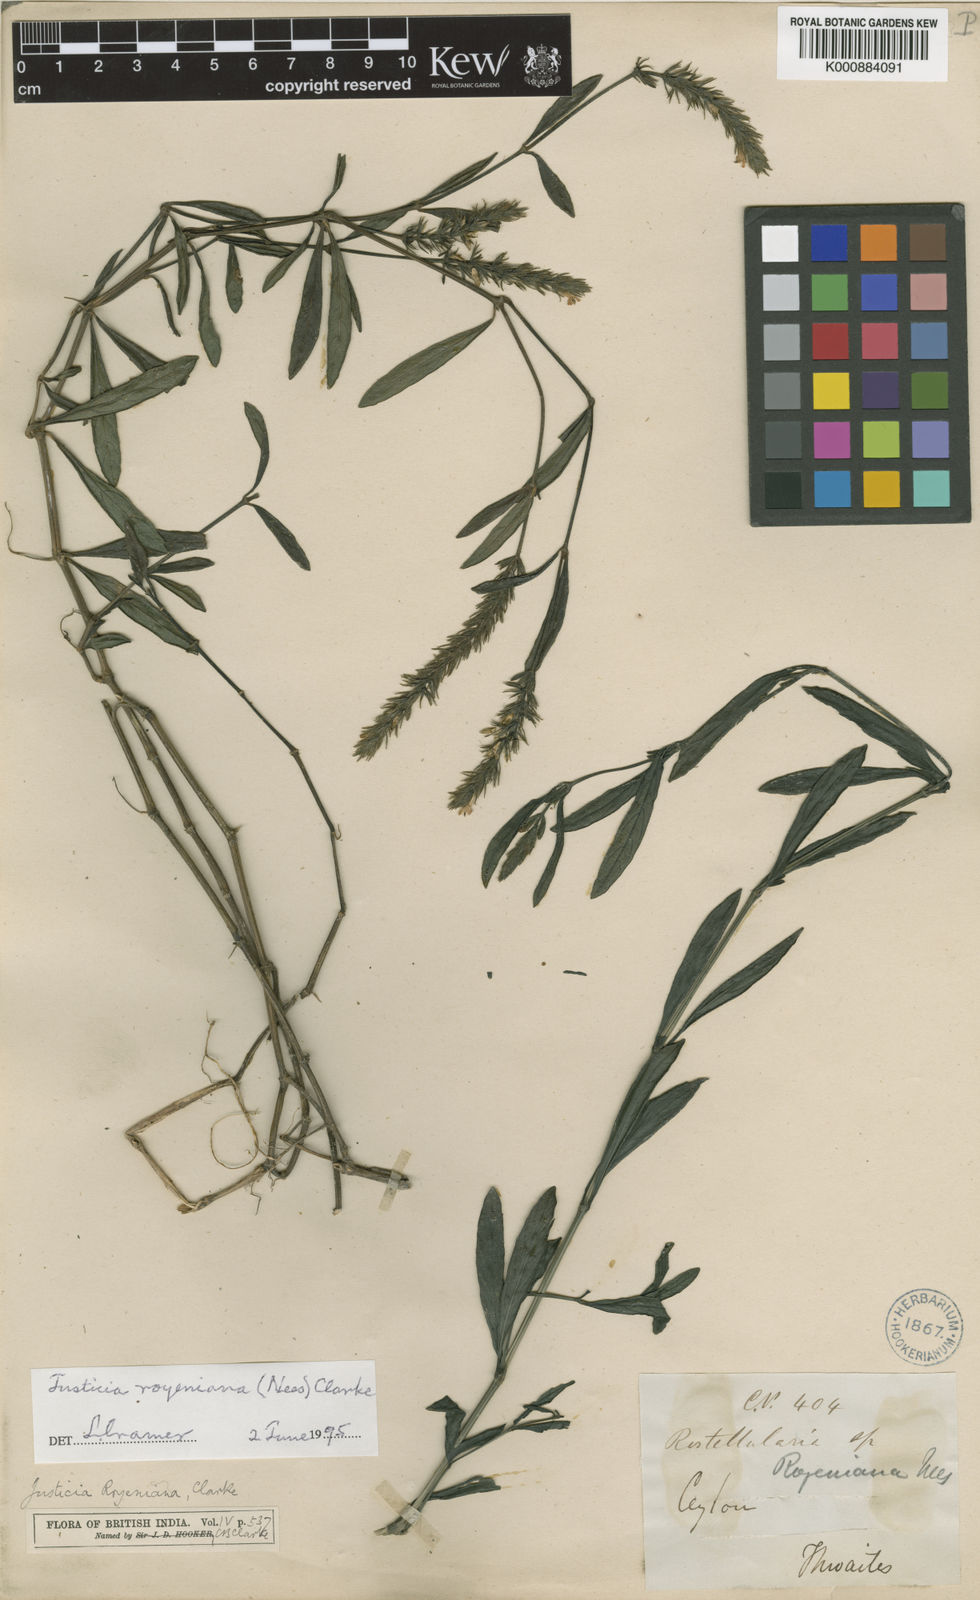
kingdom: Plantae
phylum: Tracheophyta
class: Magnoliopsida
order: Lamiales
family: Acanthaceae
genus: Rostellularia
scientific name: Rostellularia royeniana
